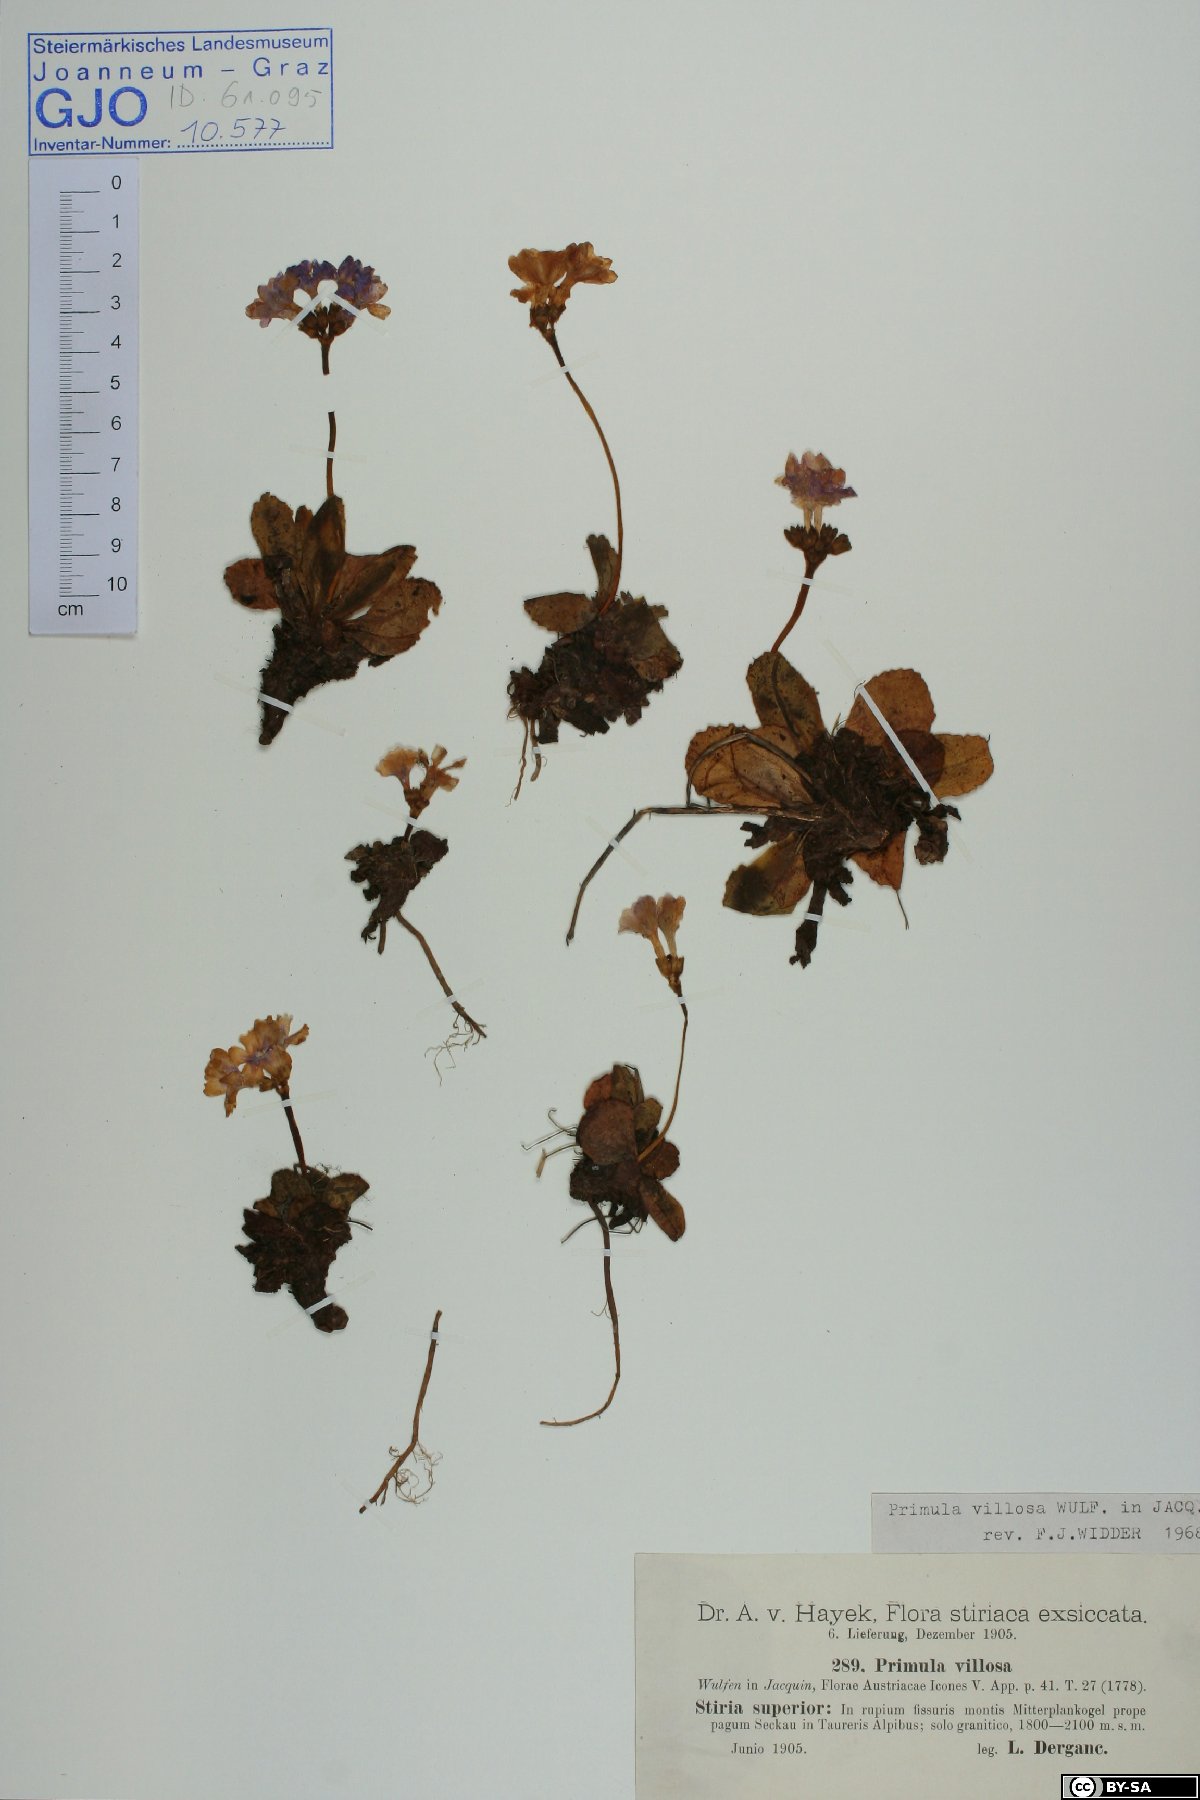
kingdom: Plantae
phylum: Tracheophyta
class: Magnoliopsida
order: Ericales
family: Primulaceae
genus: Primula
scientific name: Primula villosa
